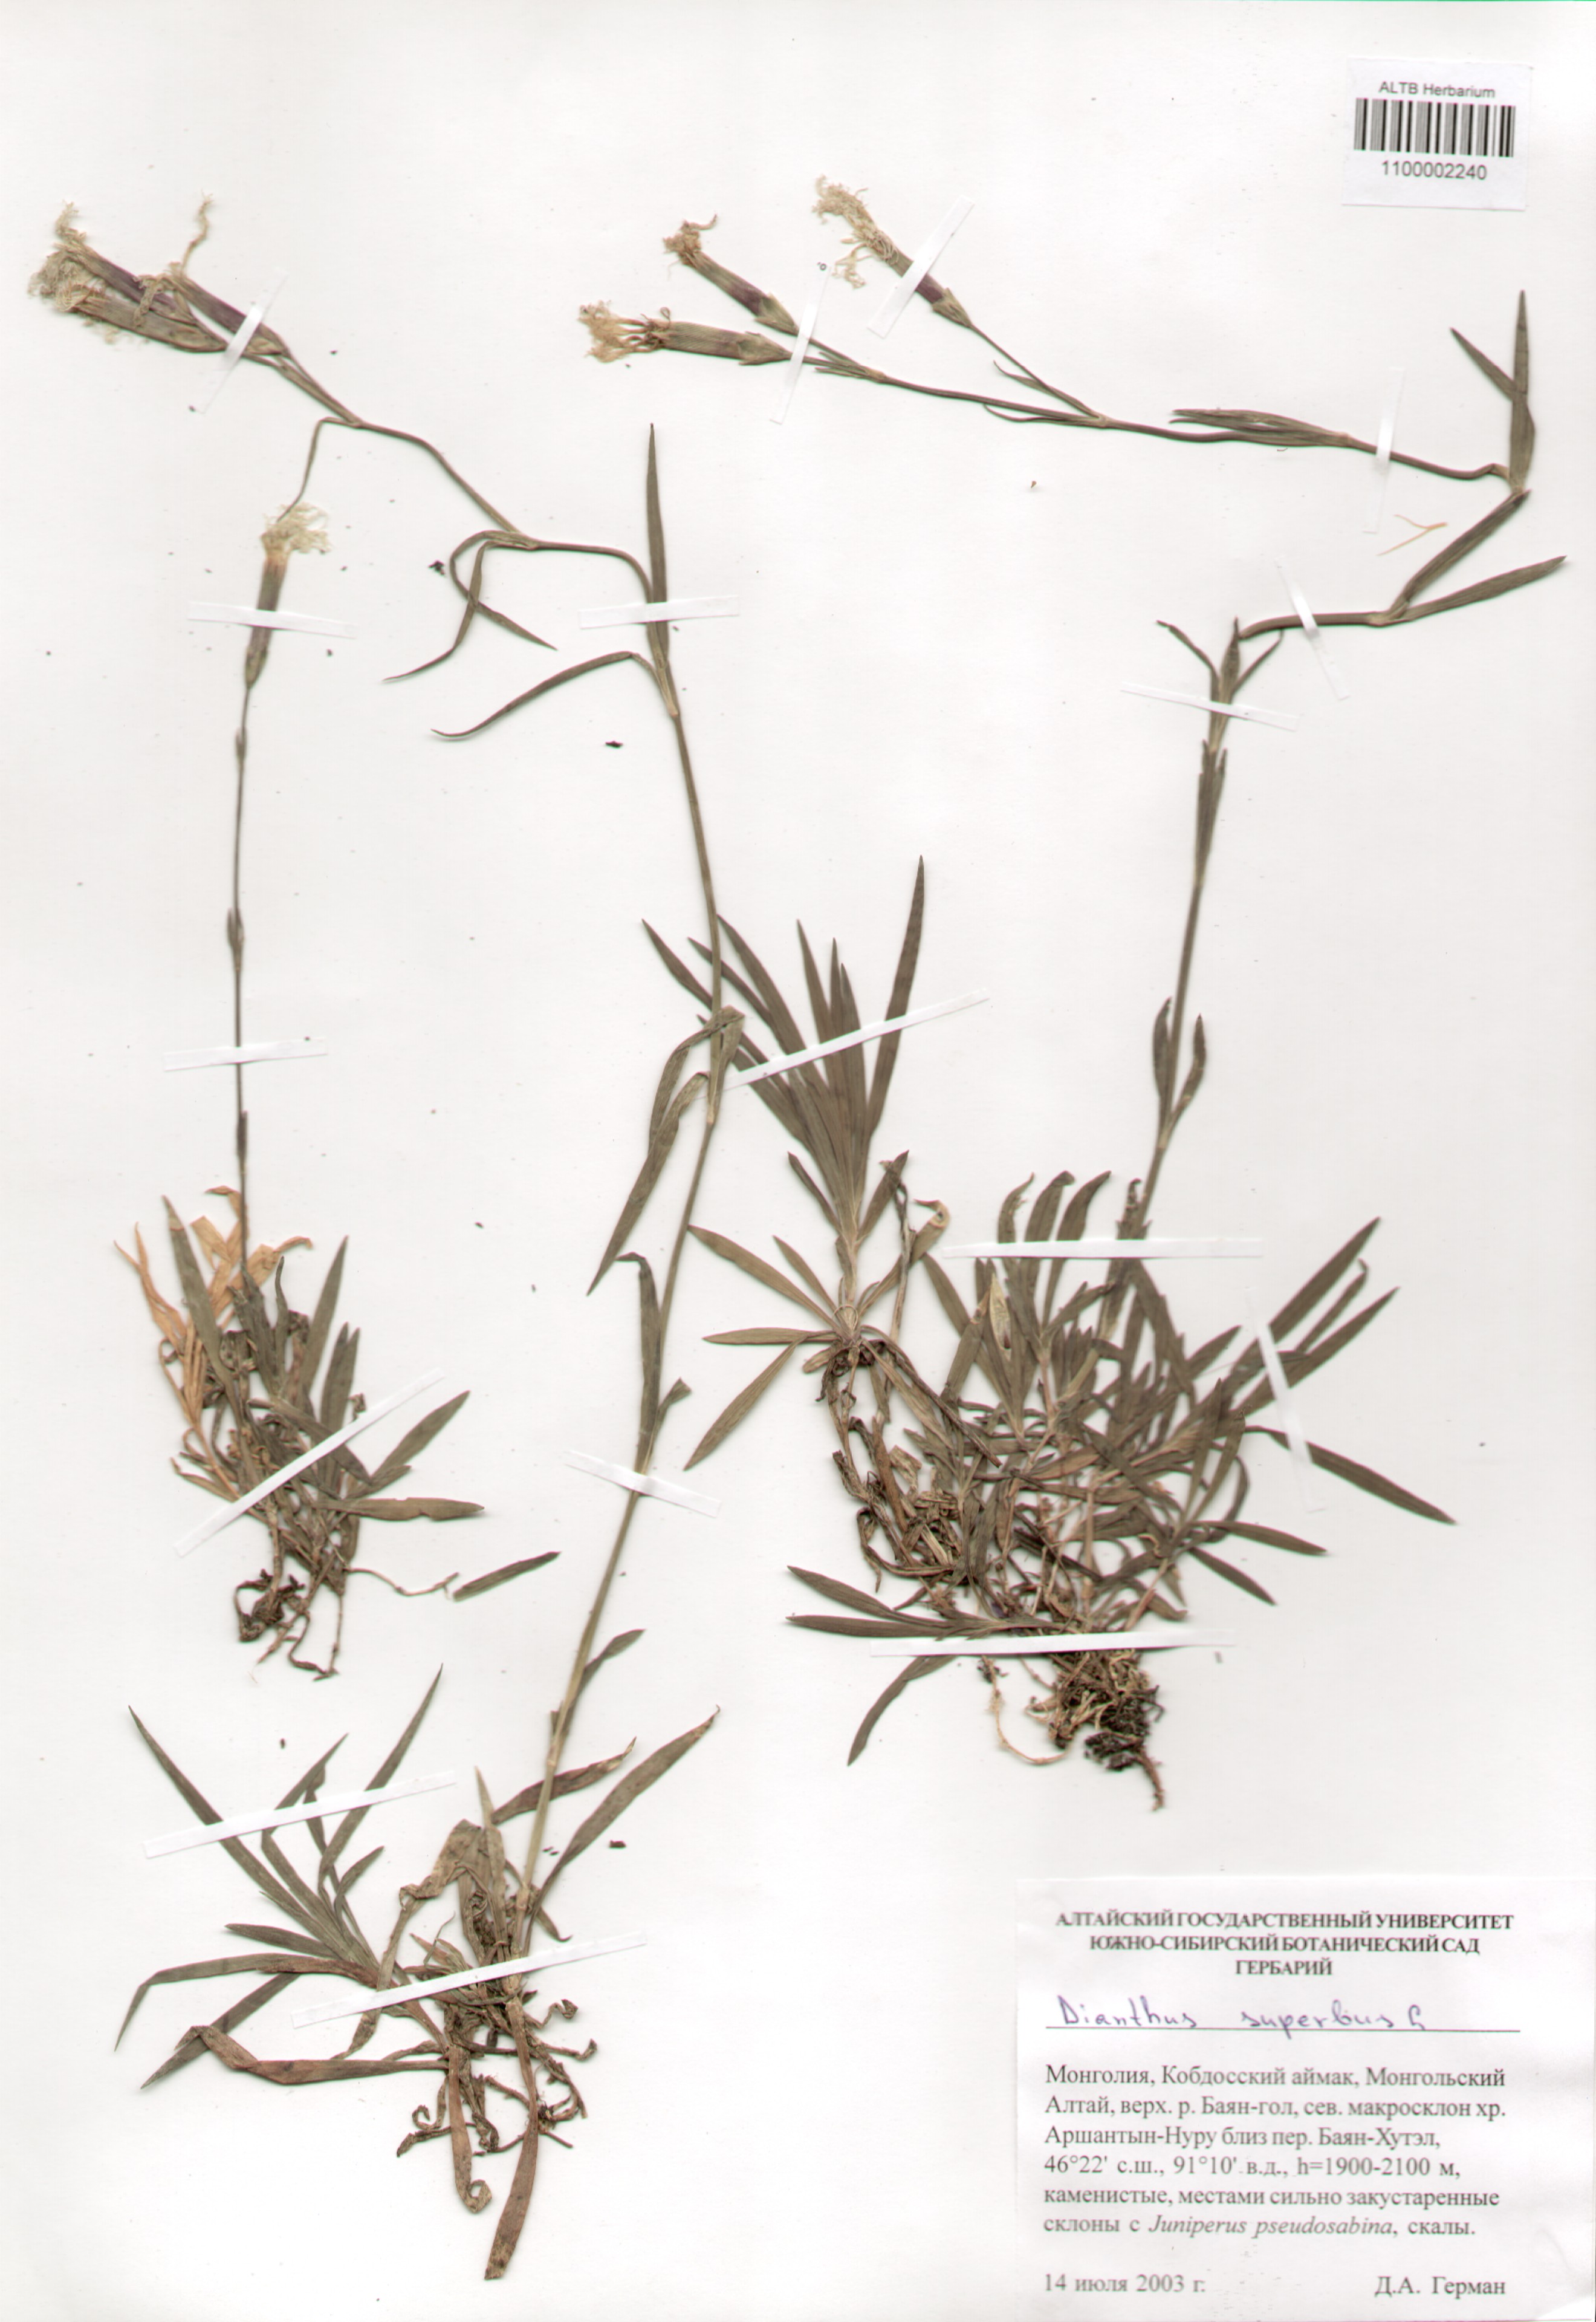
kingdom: Plantae
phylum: Tracheophyta
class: Magnoliopsida
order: Caryophyllales
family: Caryophyllaceae
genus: Dianthus
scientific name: Dianthus superbus
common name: Fringed pink
